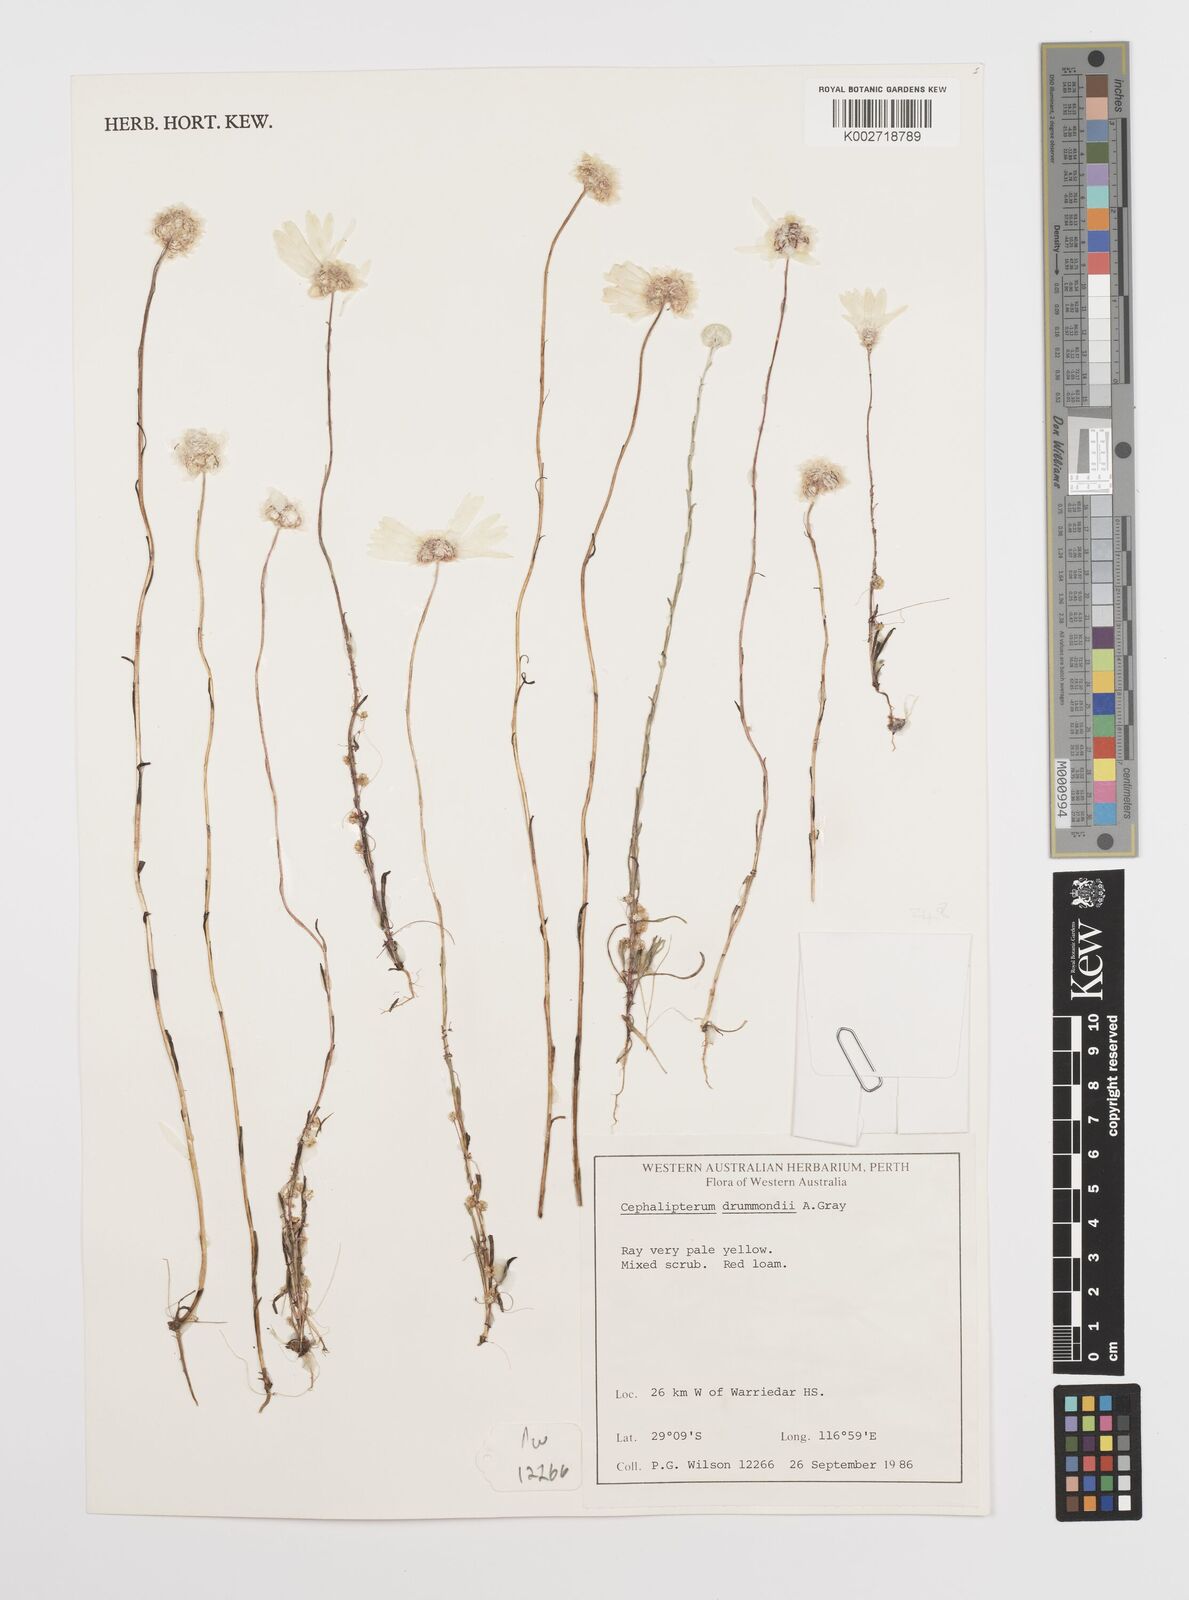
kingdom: Plantae
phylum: Tracheophyta
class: Magnoliopsida
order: Asterales
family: Asteraceae
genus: Cephalipterum
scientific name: Cephalipterum drummondii
